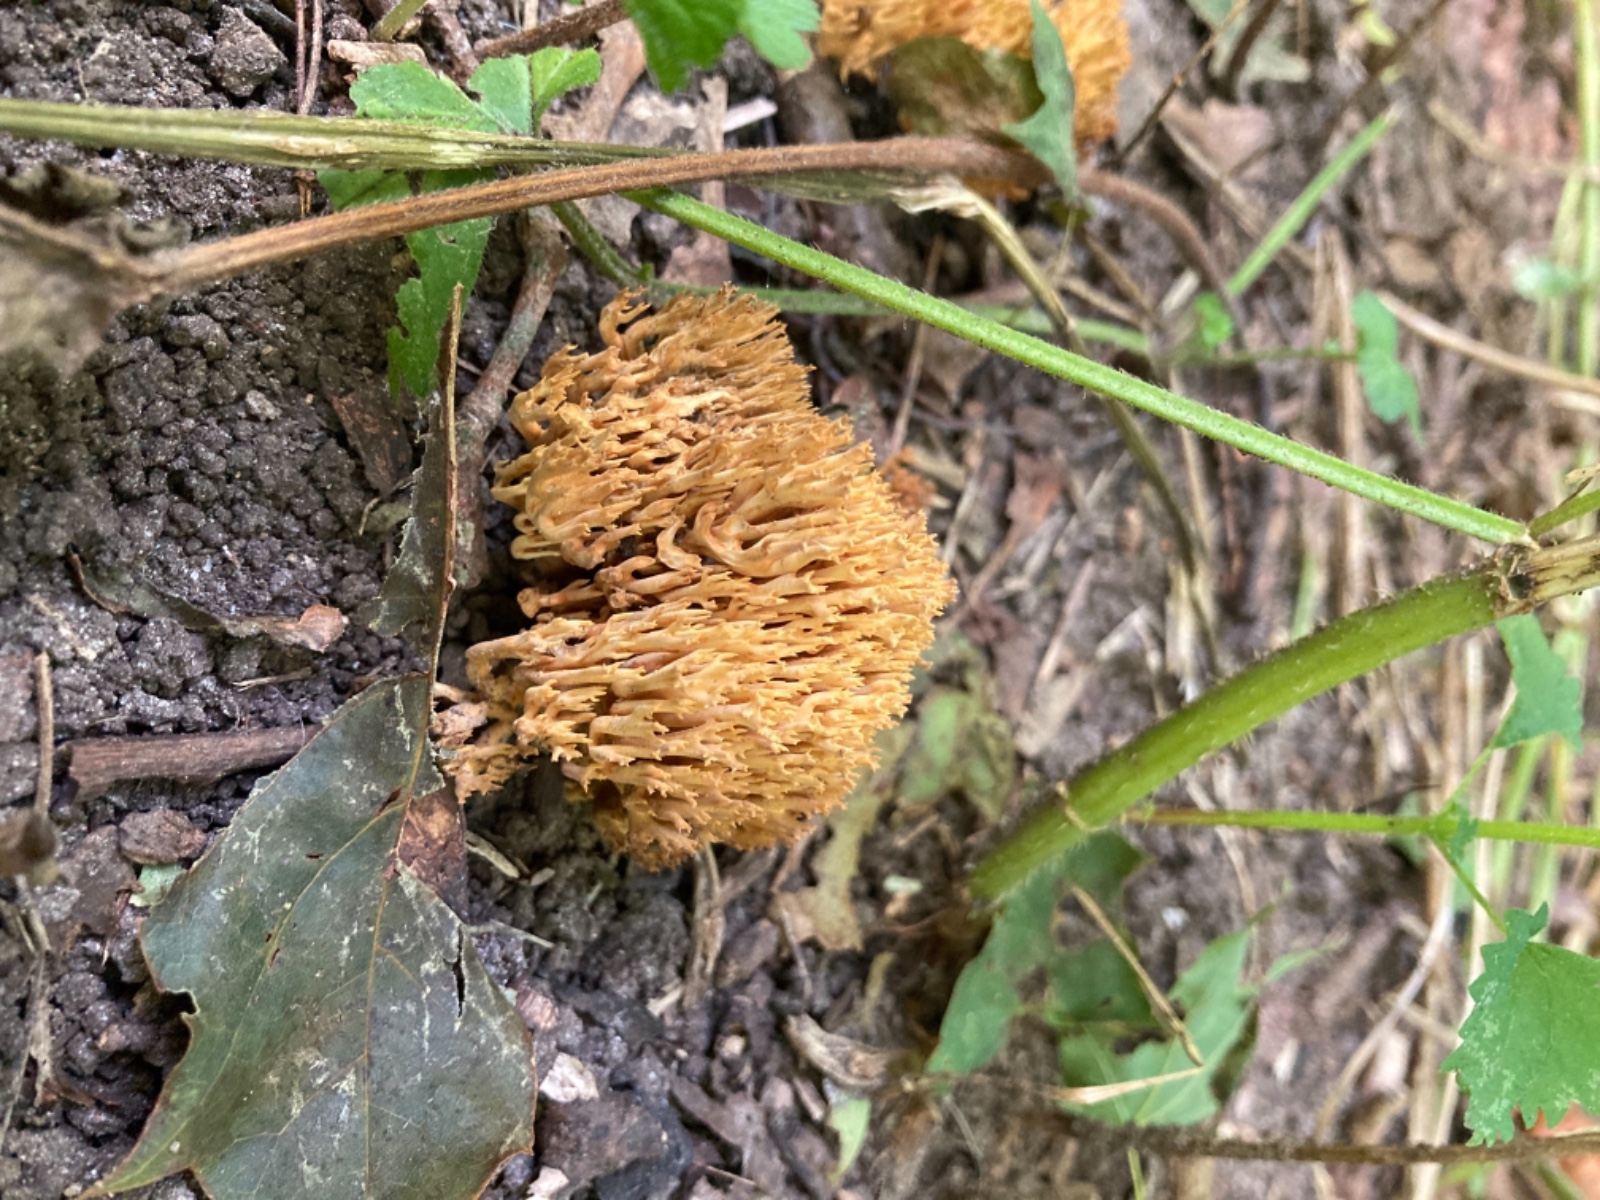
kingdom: Fungi
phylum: Basidiomycota
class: Agaricomycetes
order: Gomphales
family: Gomphaceae
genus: Ramaria
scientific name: Ramaria stricta
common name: rank koralsvamp
